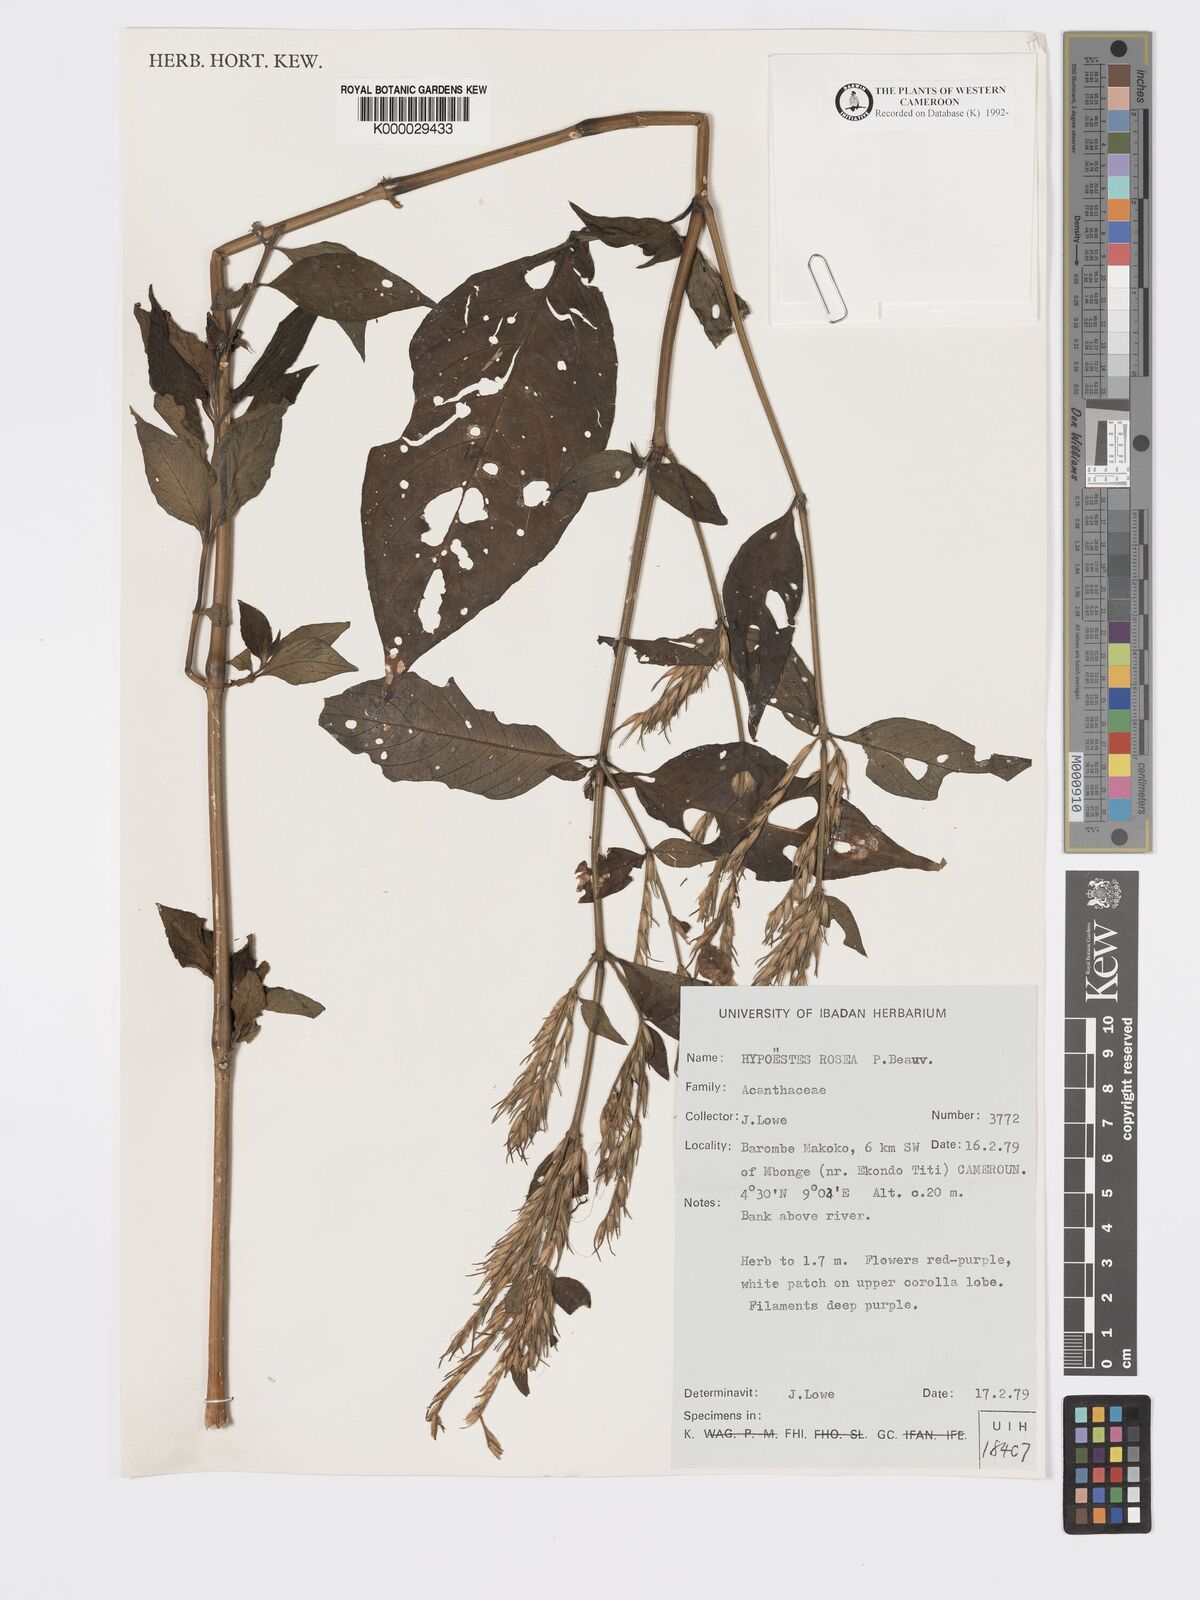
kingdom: Plantae
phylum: Tracheophyta
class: Magnoliopsida
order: Lamiales
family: Acanthaceae
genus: Hypoestes
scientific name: Hypoestes rosea
